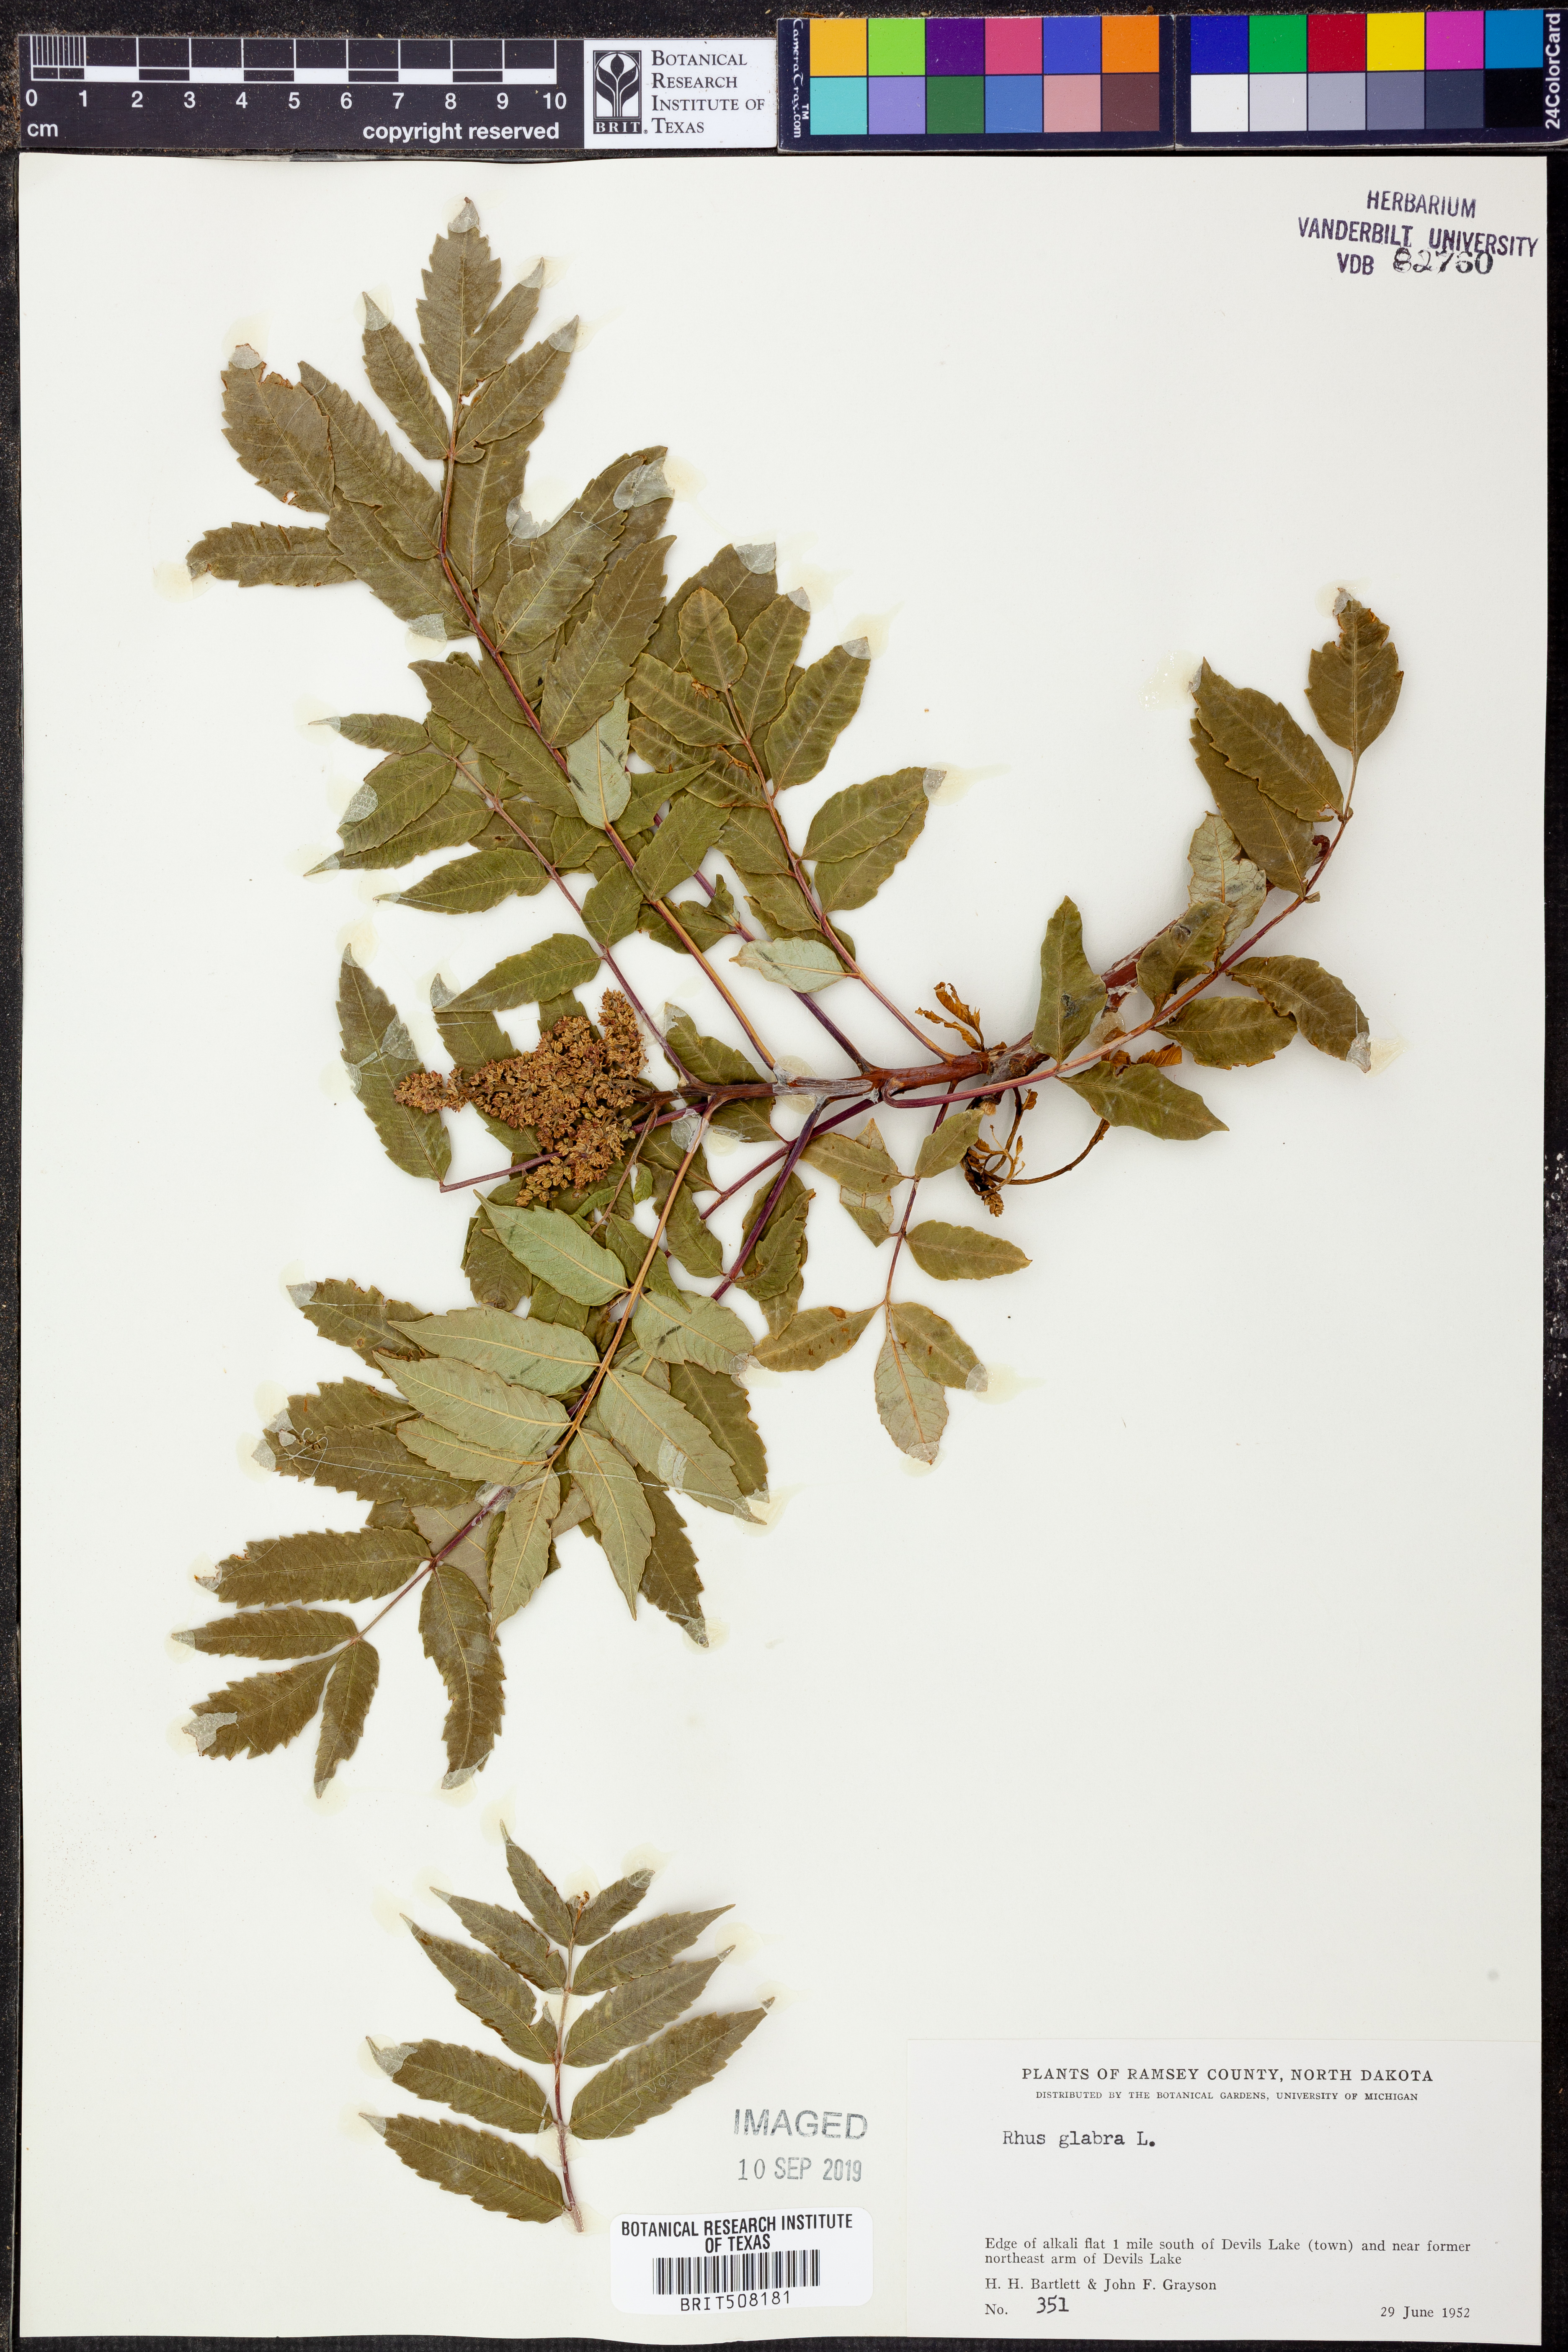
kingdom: Plantae
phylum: Tracheophyta
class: Magnoliopsida
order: Sapindales
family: Anacardiaceae
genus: Rhus
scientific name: Rhus glabra
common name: Scarlet sumac
